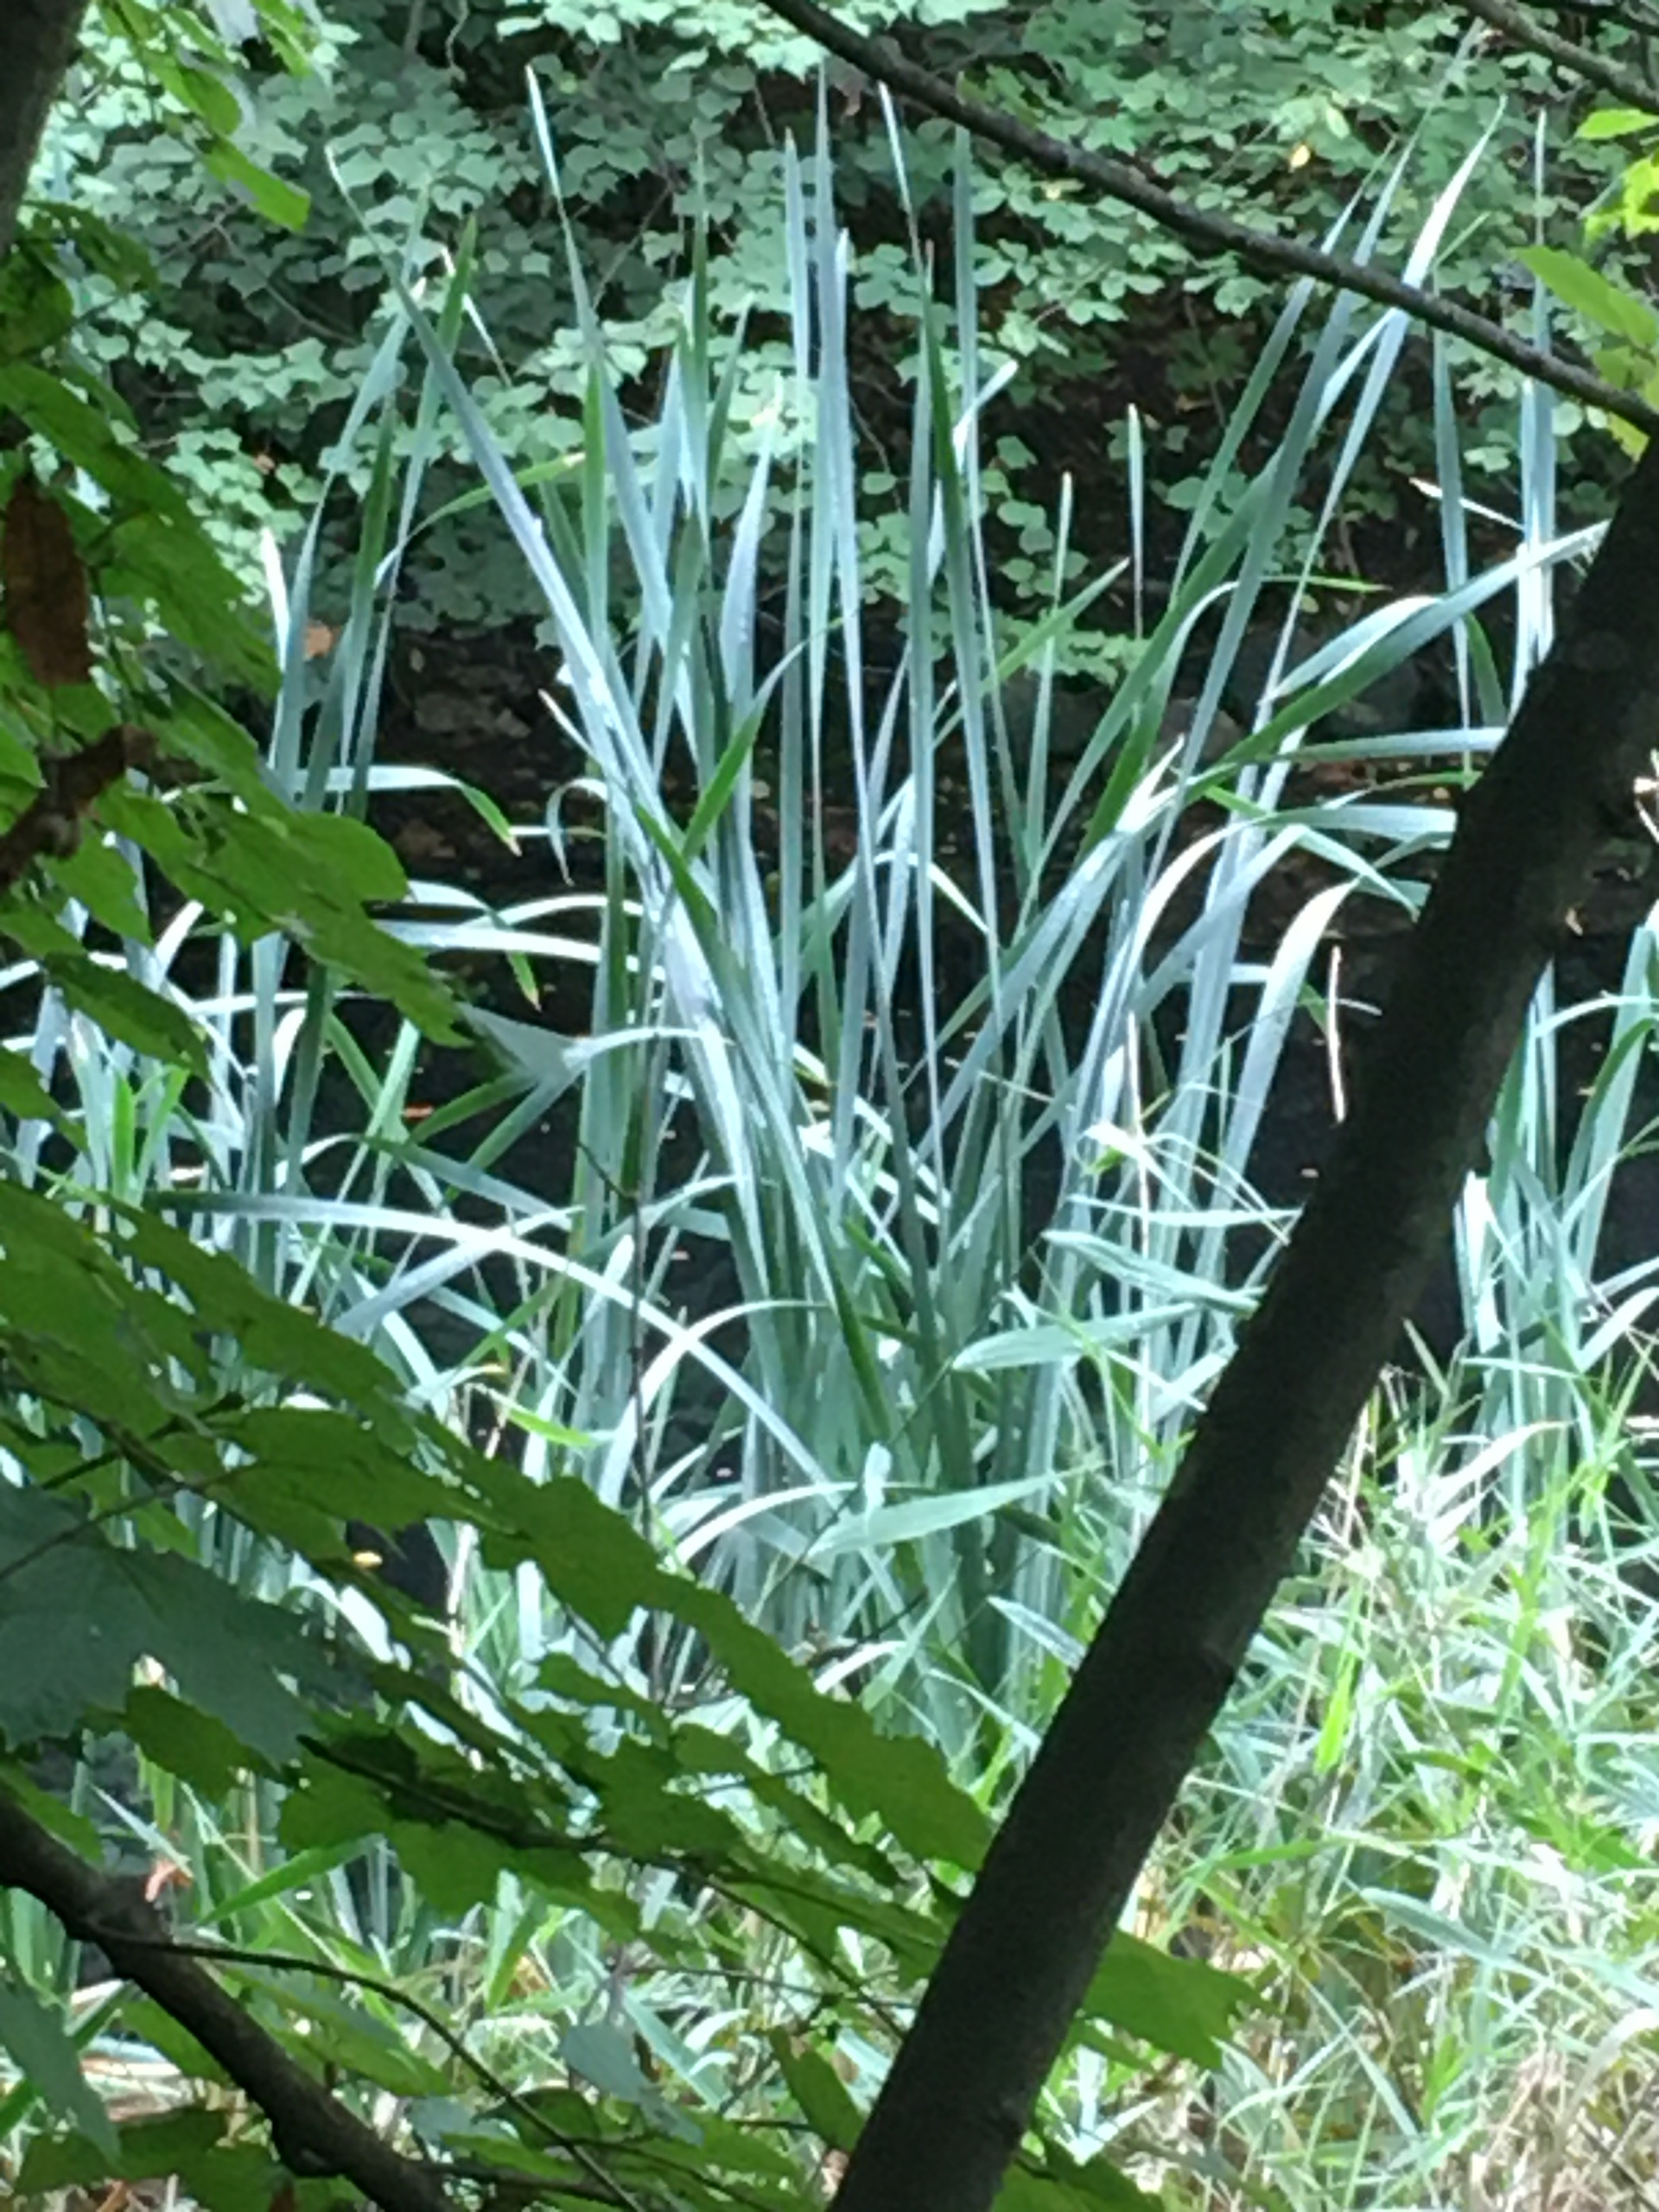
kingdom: Plantae
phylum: Tracheophyta
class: Liliopsida
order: Asparagales
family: Iridaceae
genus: Iris
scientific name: Iris pseudacorus
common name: Gul iris
